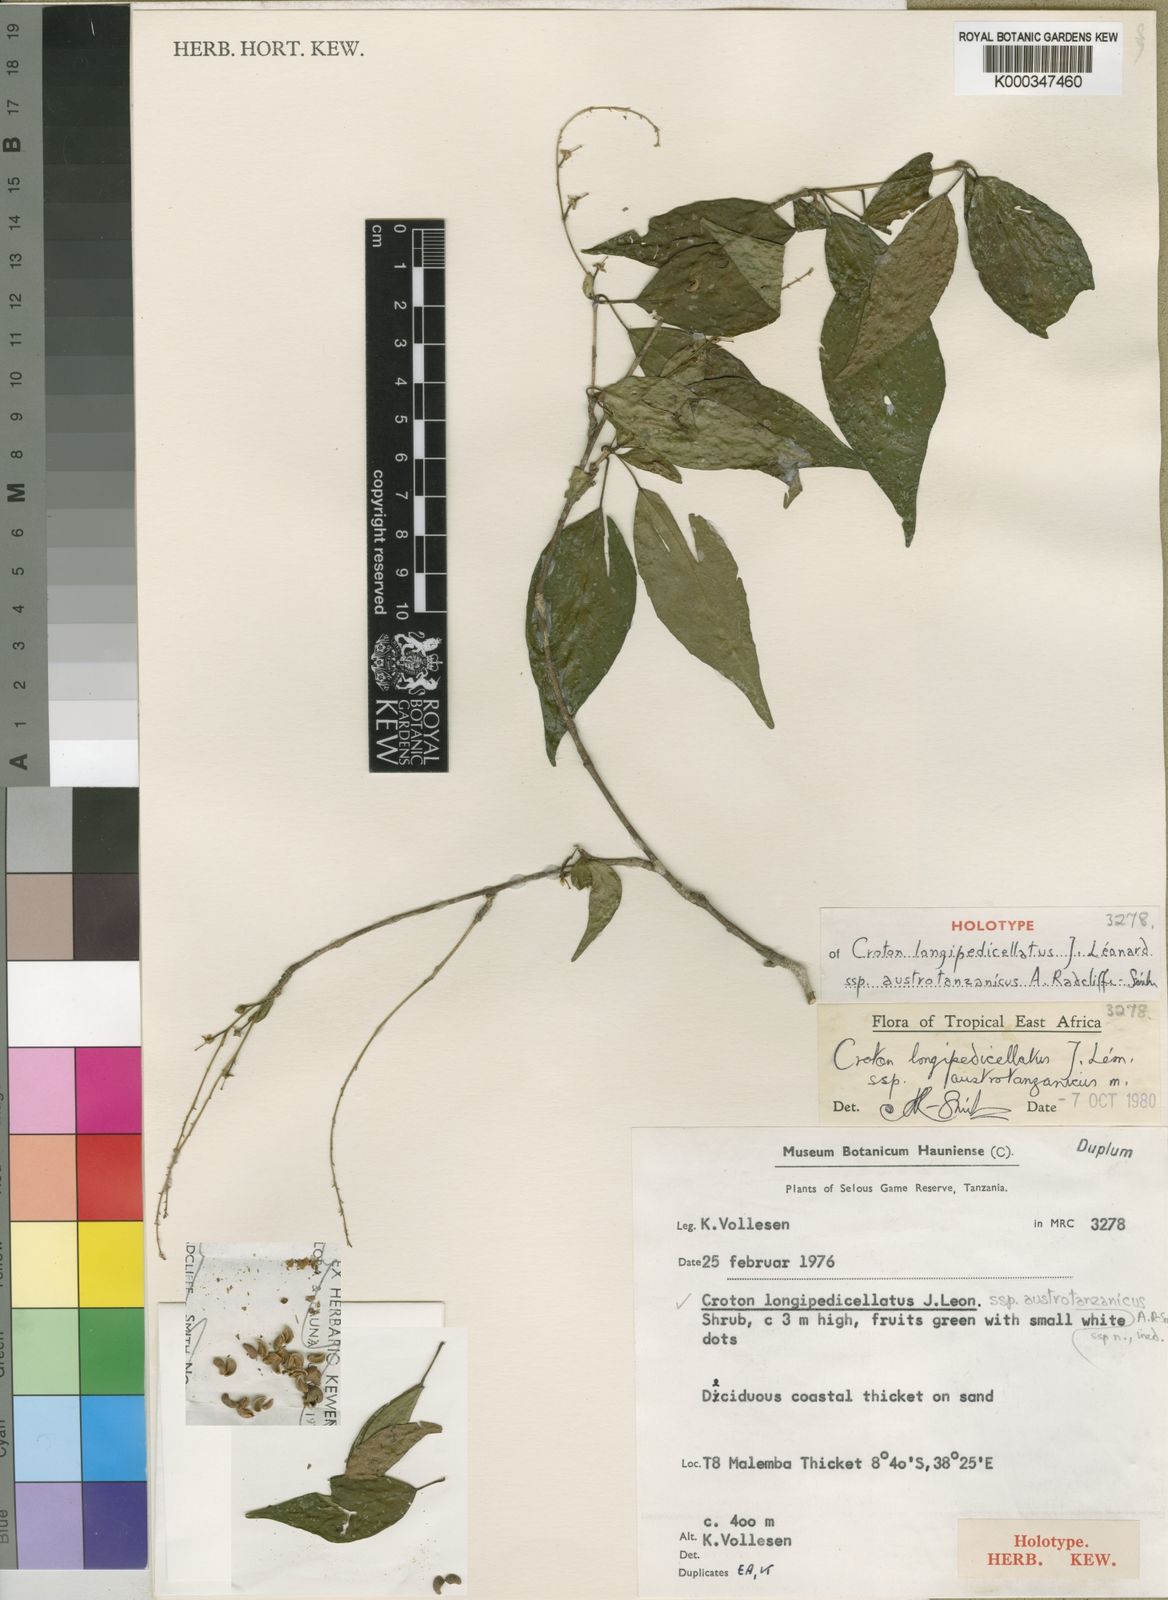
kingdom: Plantae
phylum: Tracheophyta
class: Magnoliopsida
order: Malpighiales
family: Euphorbiaceae
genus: Croton
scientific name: Croton longipedicellatus
